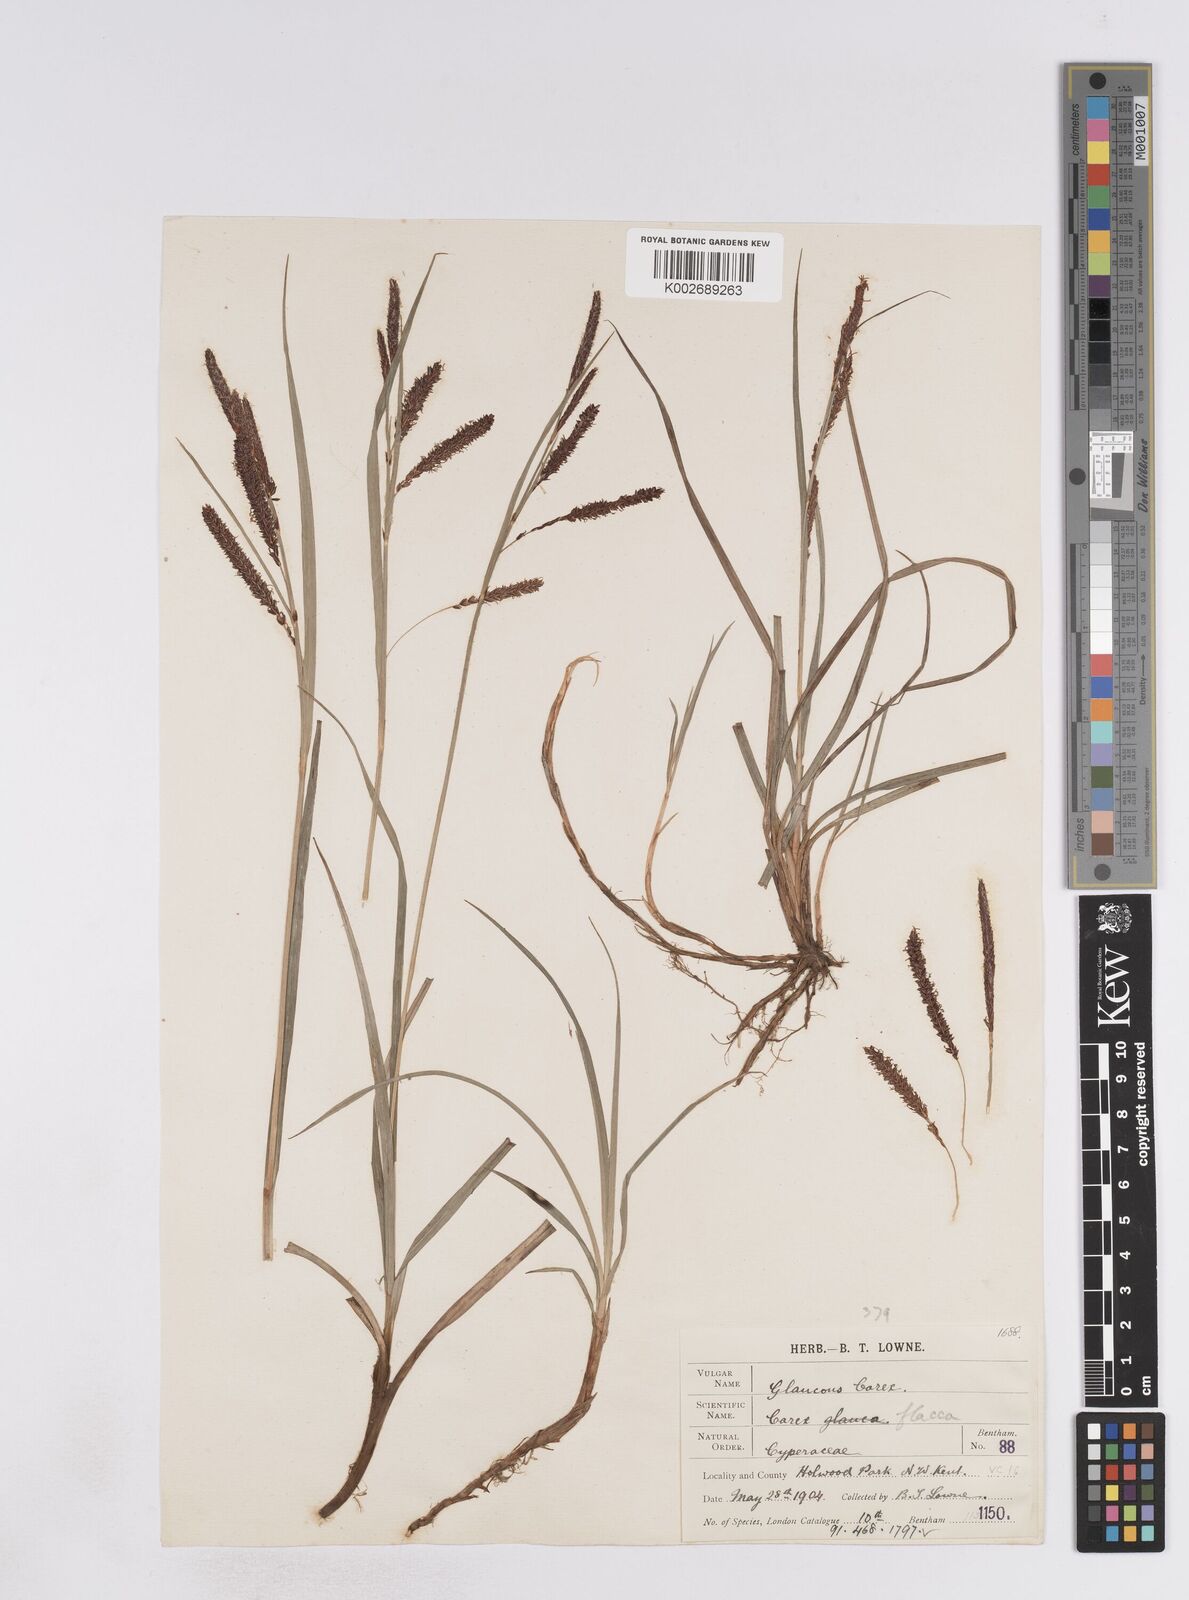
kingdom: Plantae
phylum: Tracheophyta
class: Liliopsida
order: Poales
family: Cyperaceae
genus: Carex
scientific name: Carex flacca
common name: Glaucous sedge
